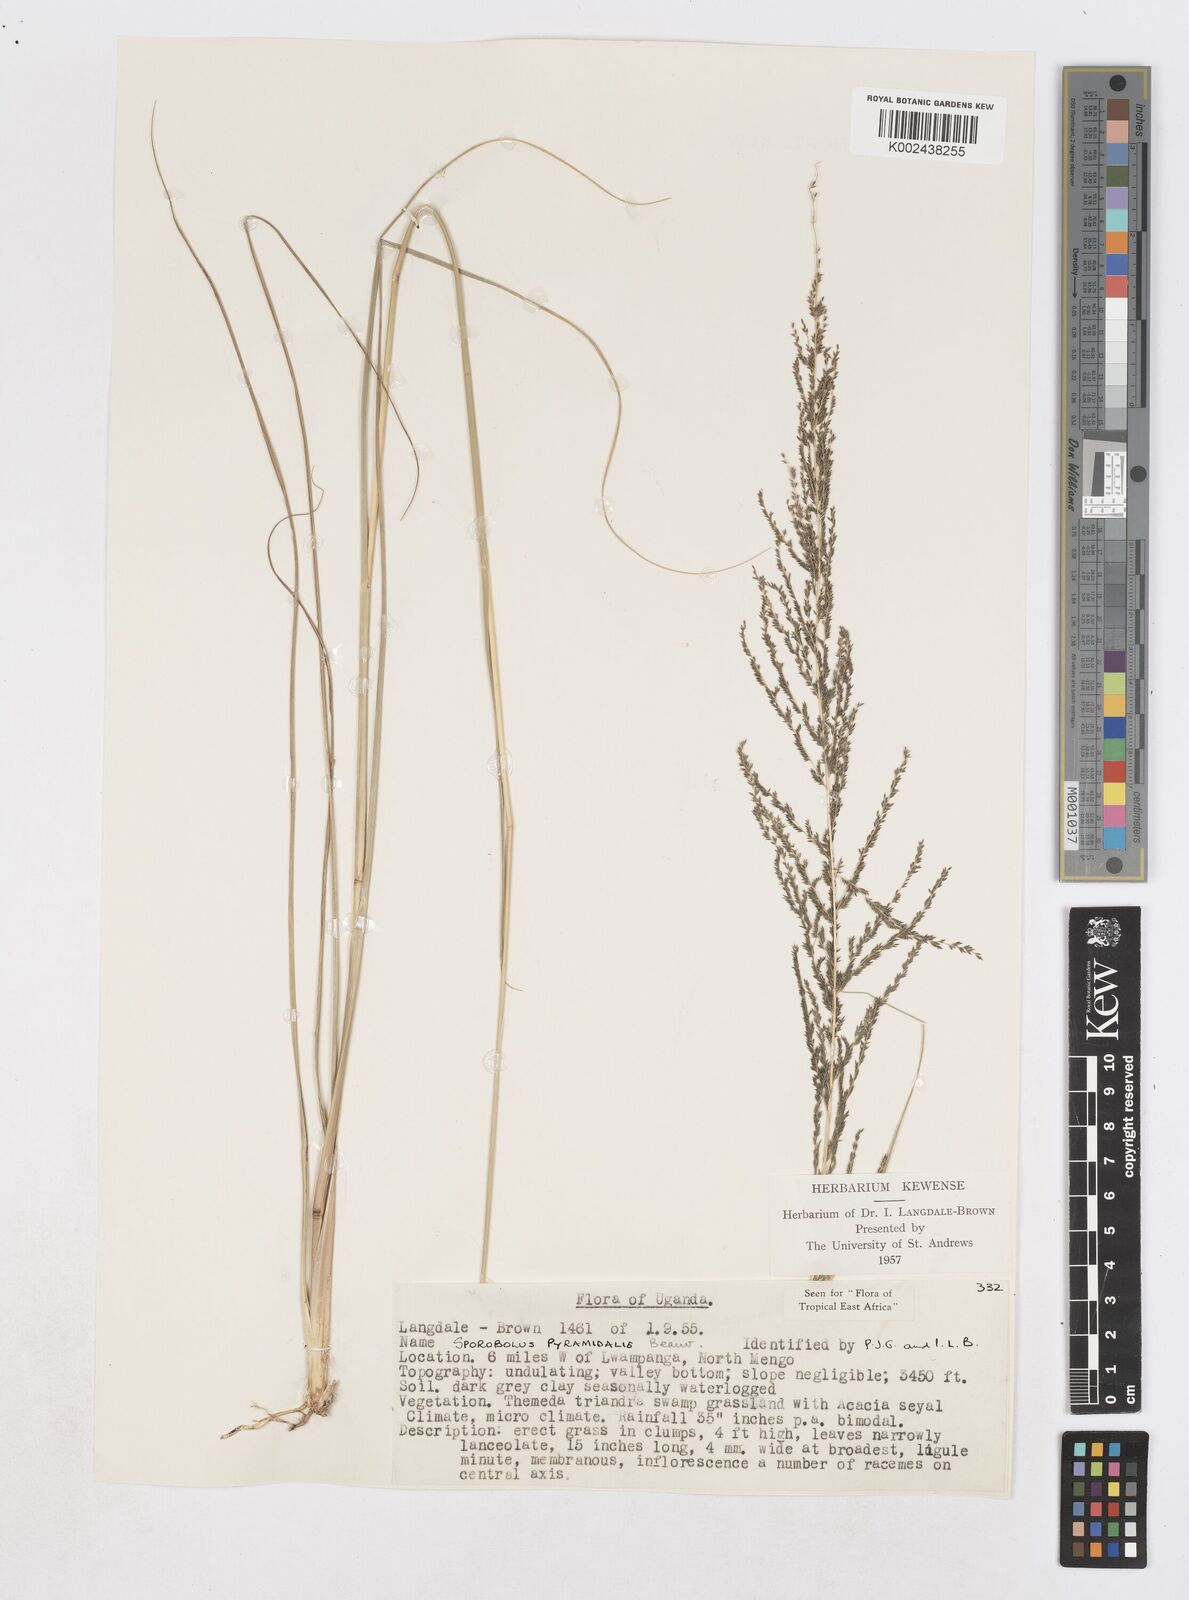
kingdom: Plantae
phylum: Tracheophyta
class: Liliopsida
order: Poales
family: Poaceae
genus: Sporobolus
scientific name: Sporobolus pyramidalis
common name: West indian dropseed
